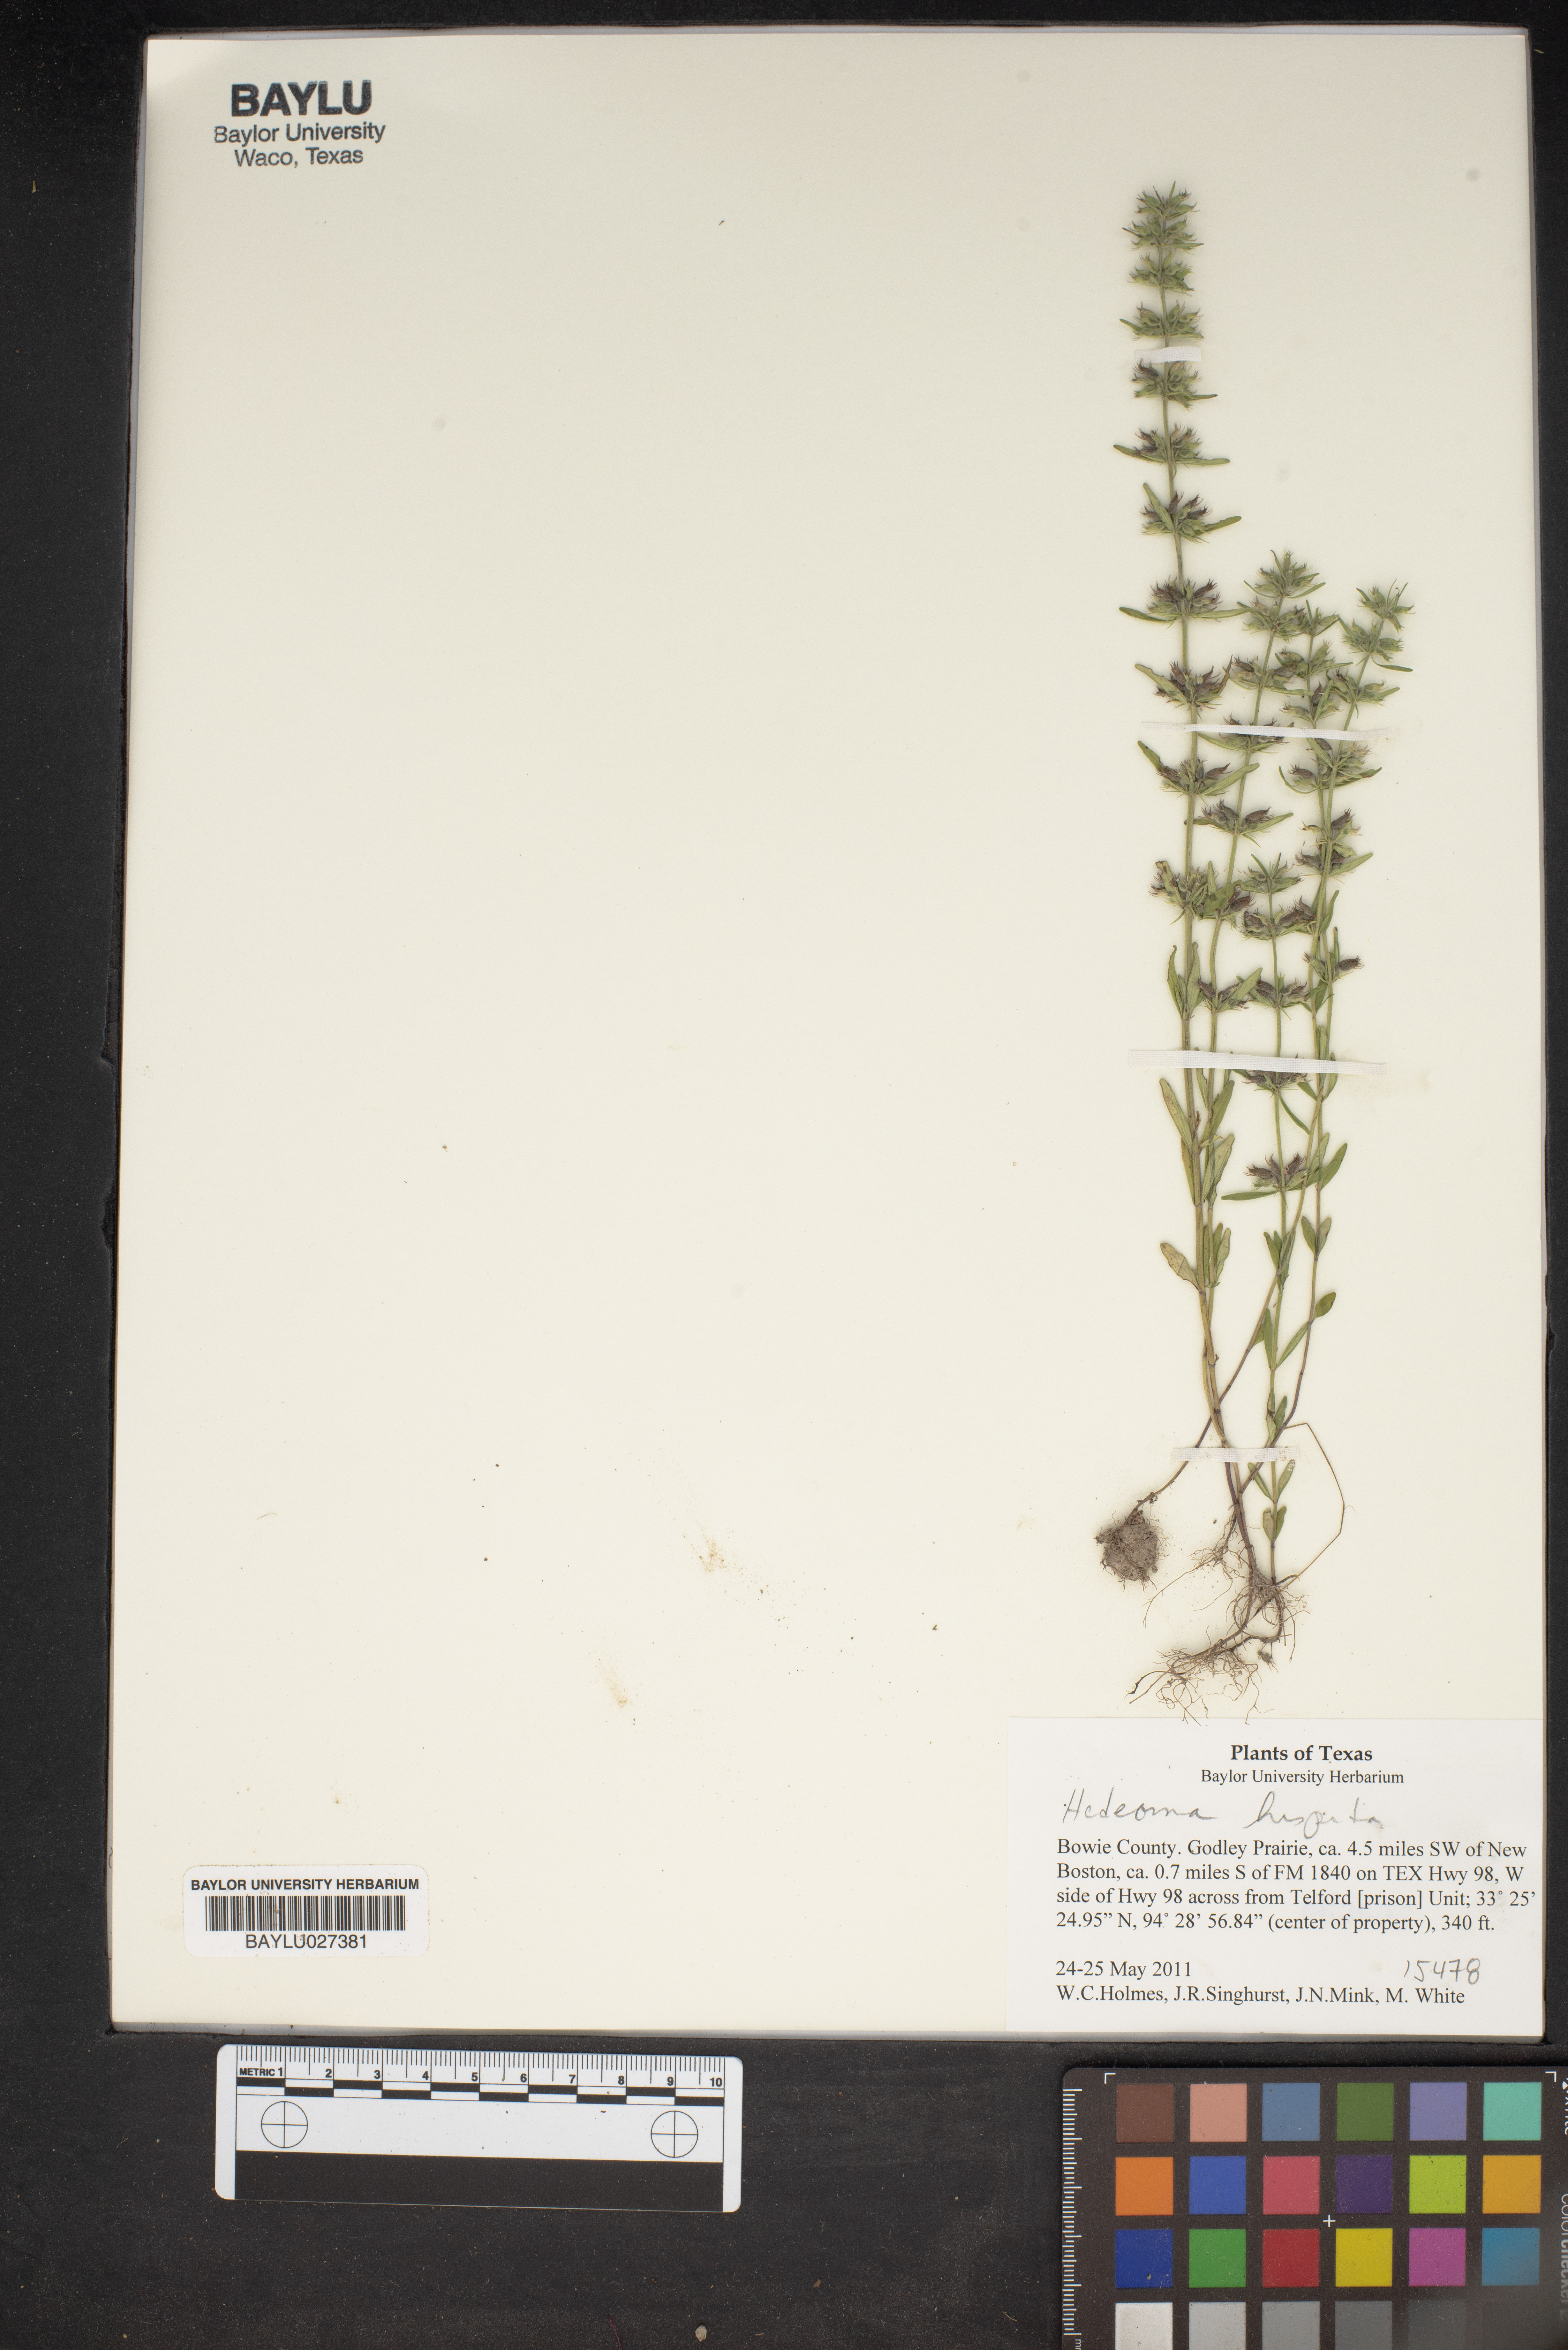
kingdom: Plantae
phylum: Tracheophyta
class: Magnoliopsida
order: Lamiales
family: Lamiaceae
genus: Hedeoma
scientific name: Hedeoma hispida
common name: Mock pennyroyal
